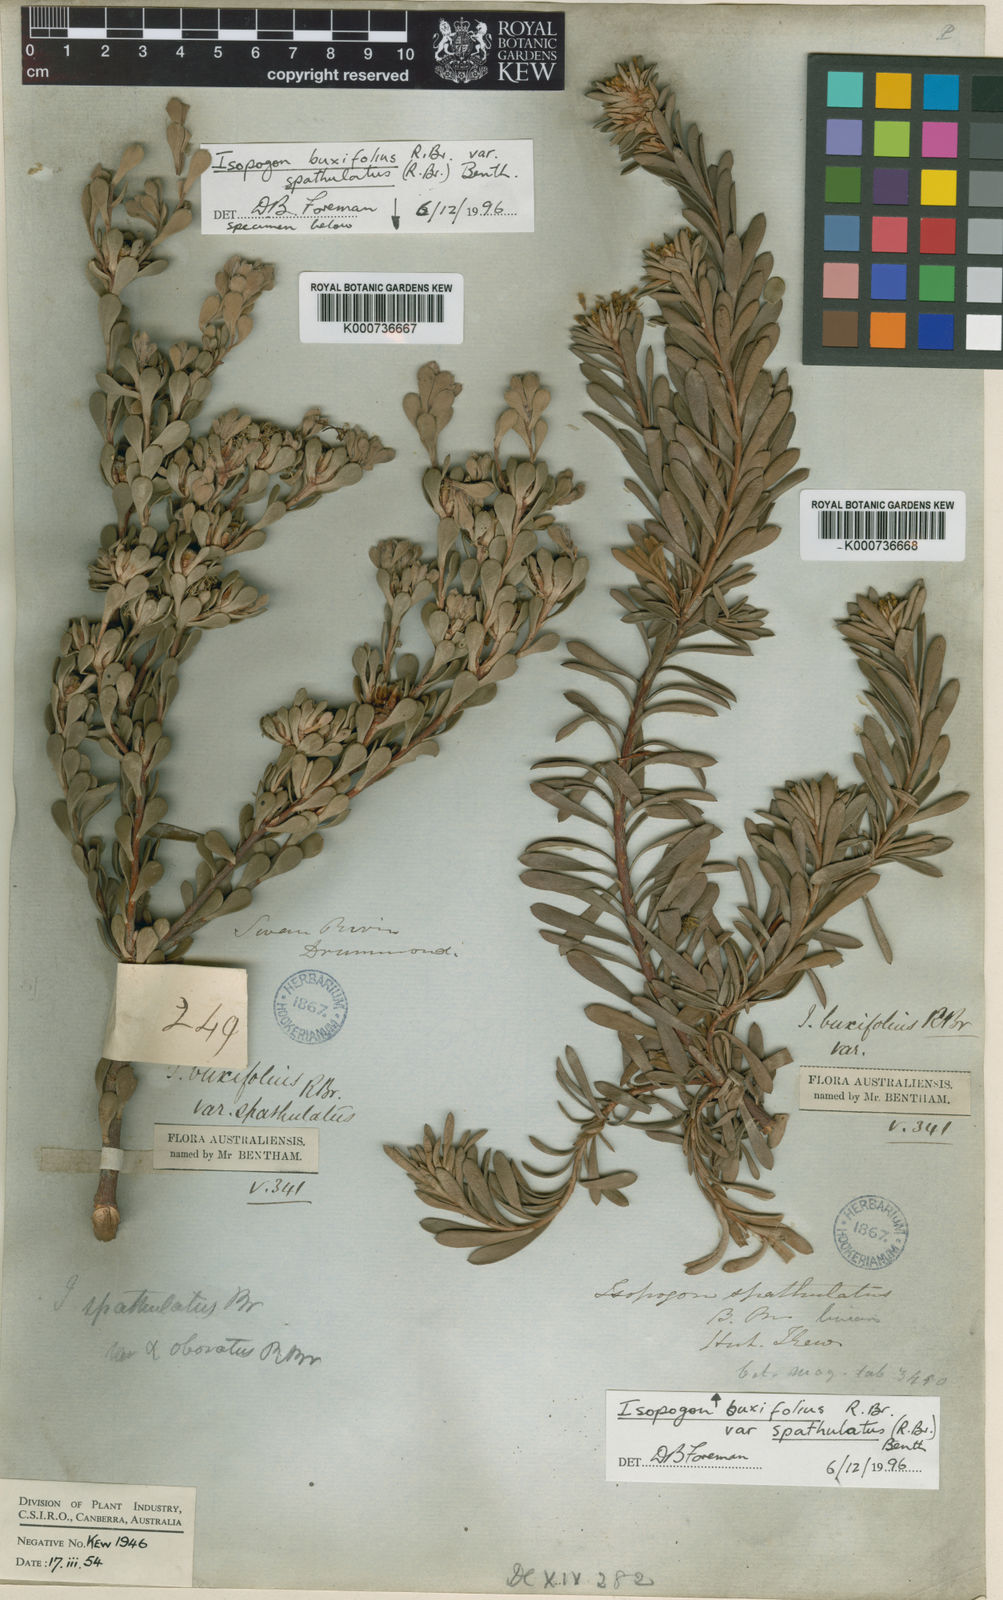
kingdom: Plantae
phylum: Tracheophyta
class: Magnoliopsida
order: Proteales
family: Proteaceae
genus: Isopogon
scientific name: Isopogon buxifolius
